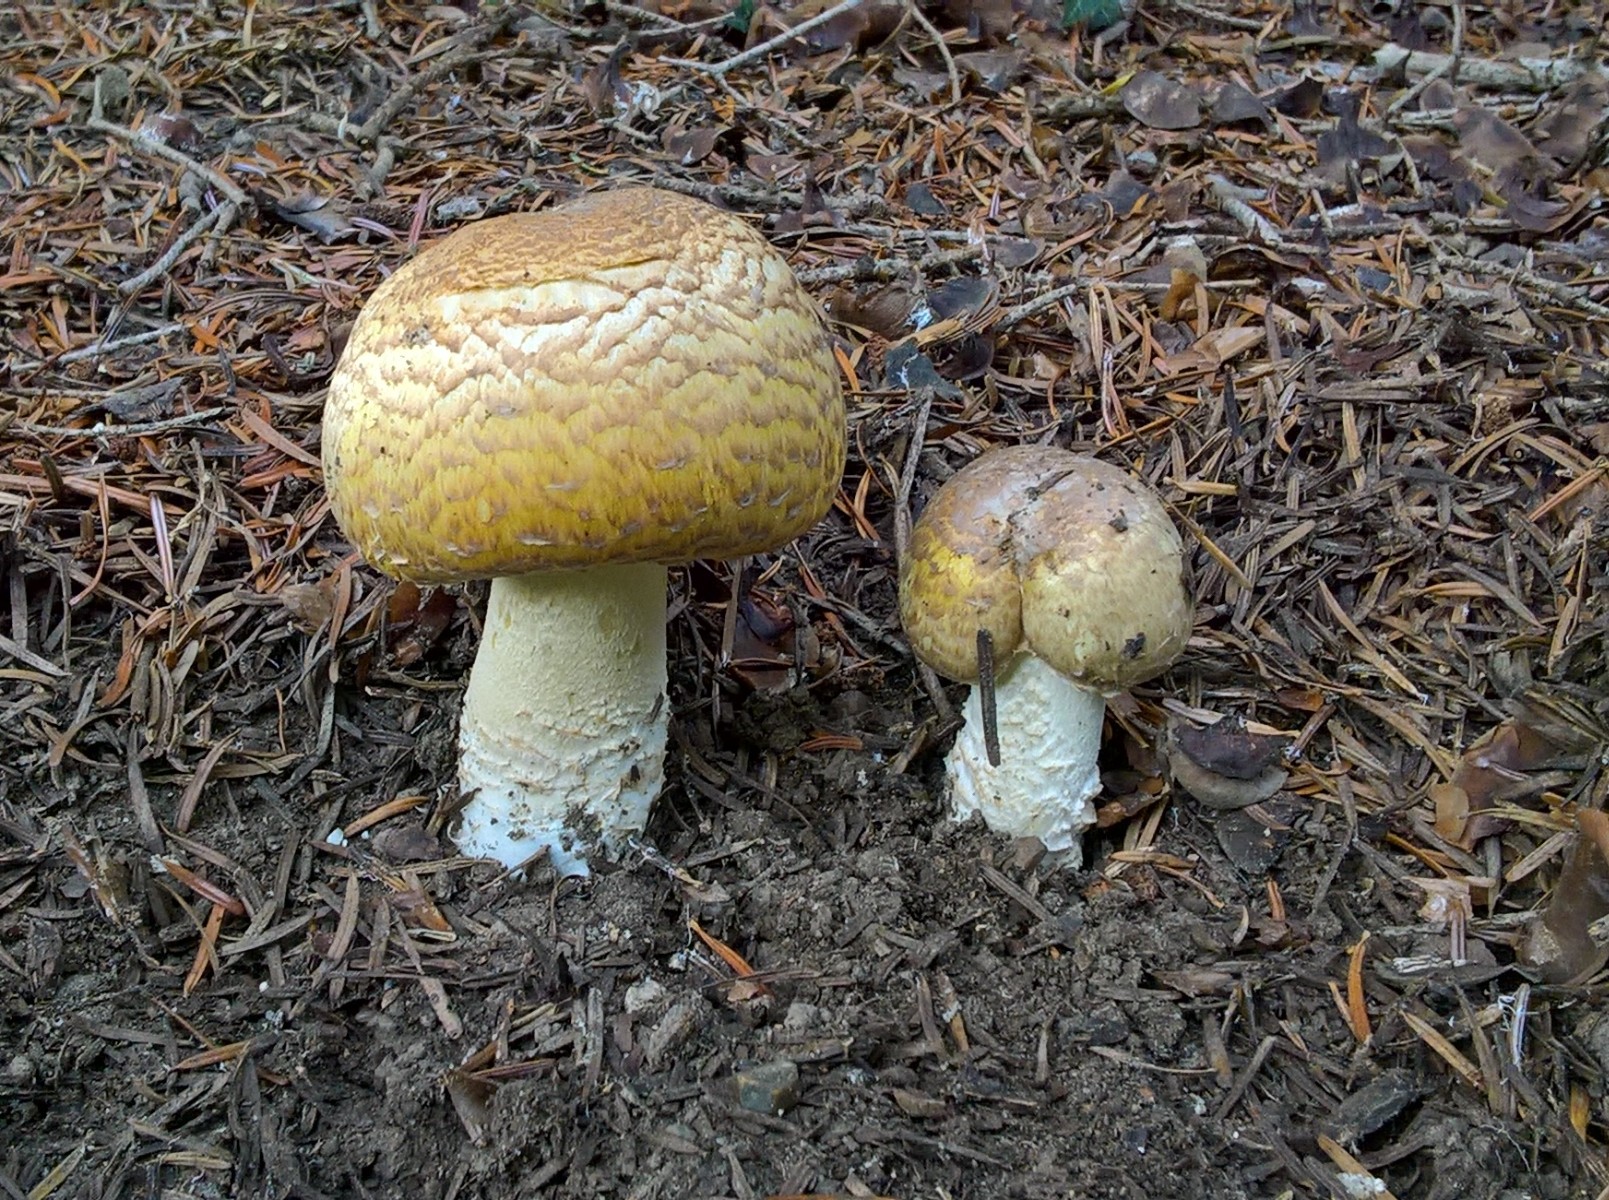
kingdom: Fungi
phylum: Basidiomycota
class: Agaricomycetes
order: Agaricales
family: Agaricaceae
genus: Agaricus
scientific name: Agaricus augustus
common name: prægtig champignon
